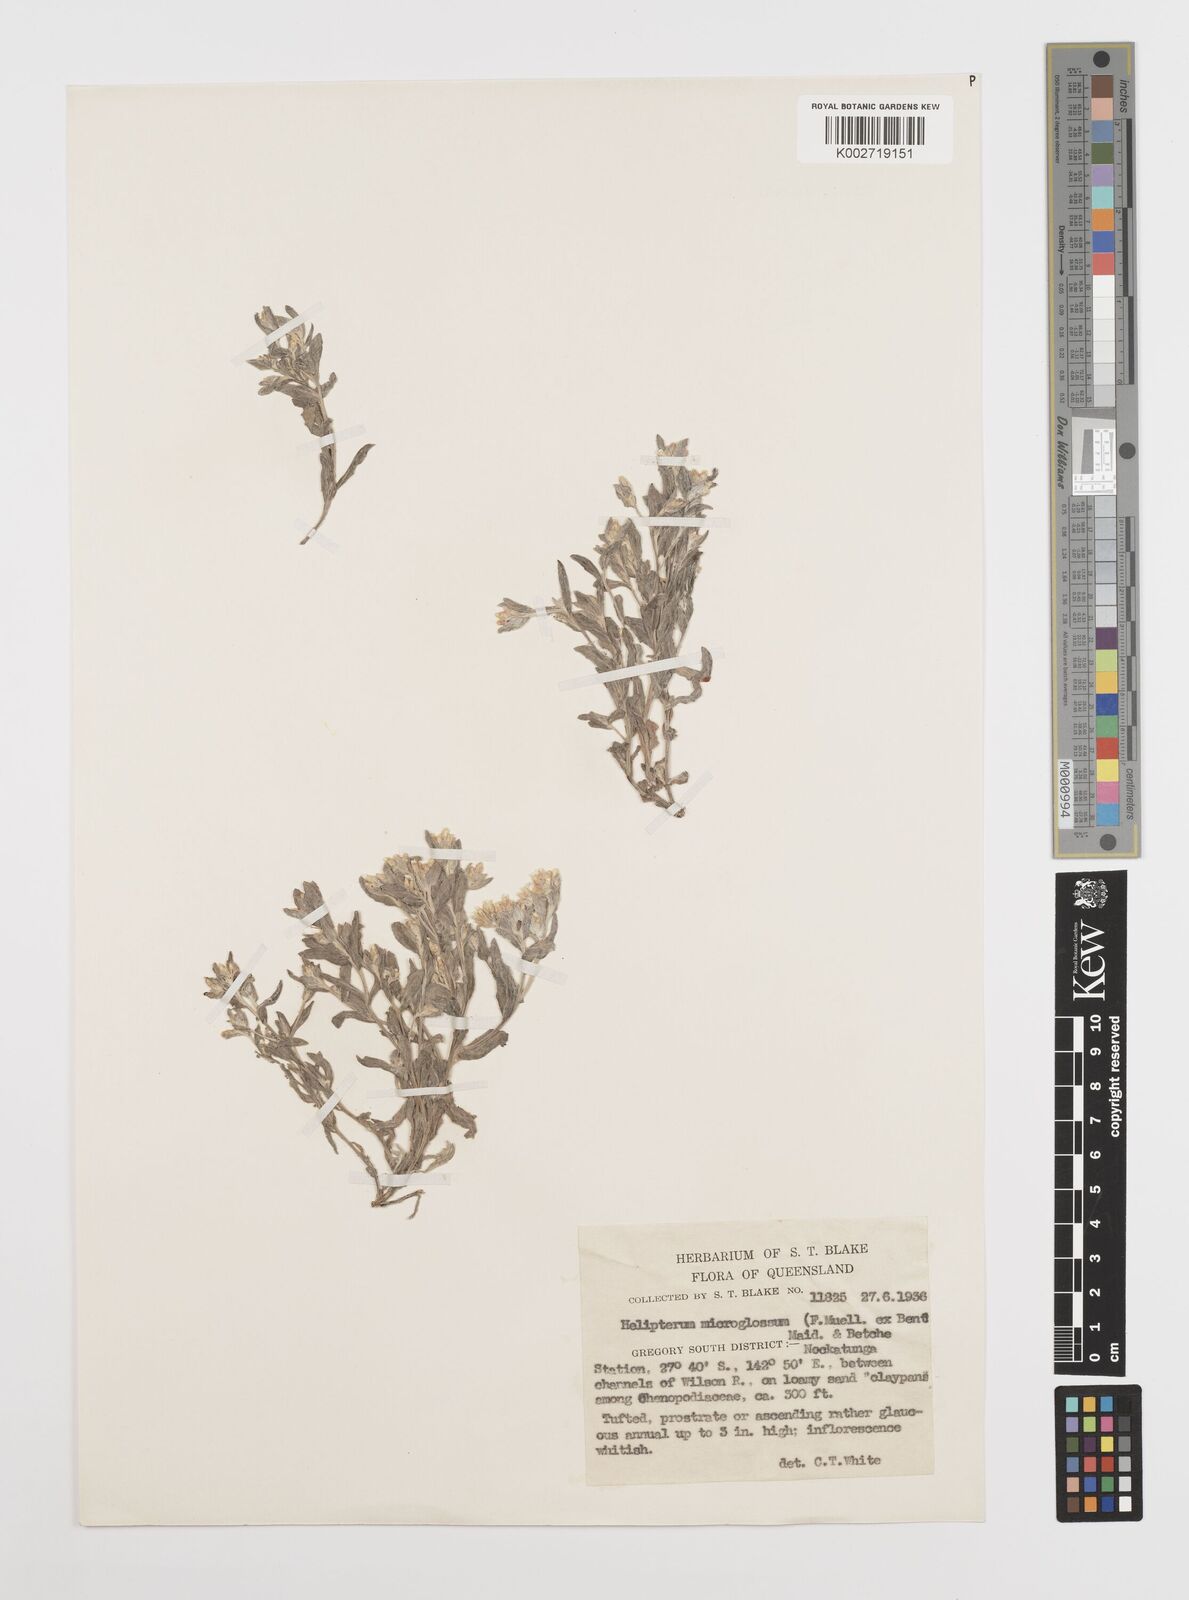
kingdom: Plantae
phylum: Tracheophyta
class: Magnoliopsida
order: Asterales
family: Asteraceae
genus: Rhodanthe
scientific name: Rhodanthe microglossa
